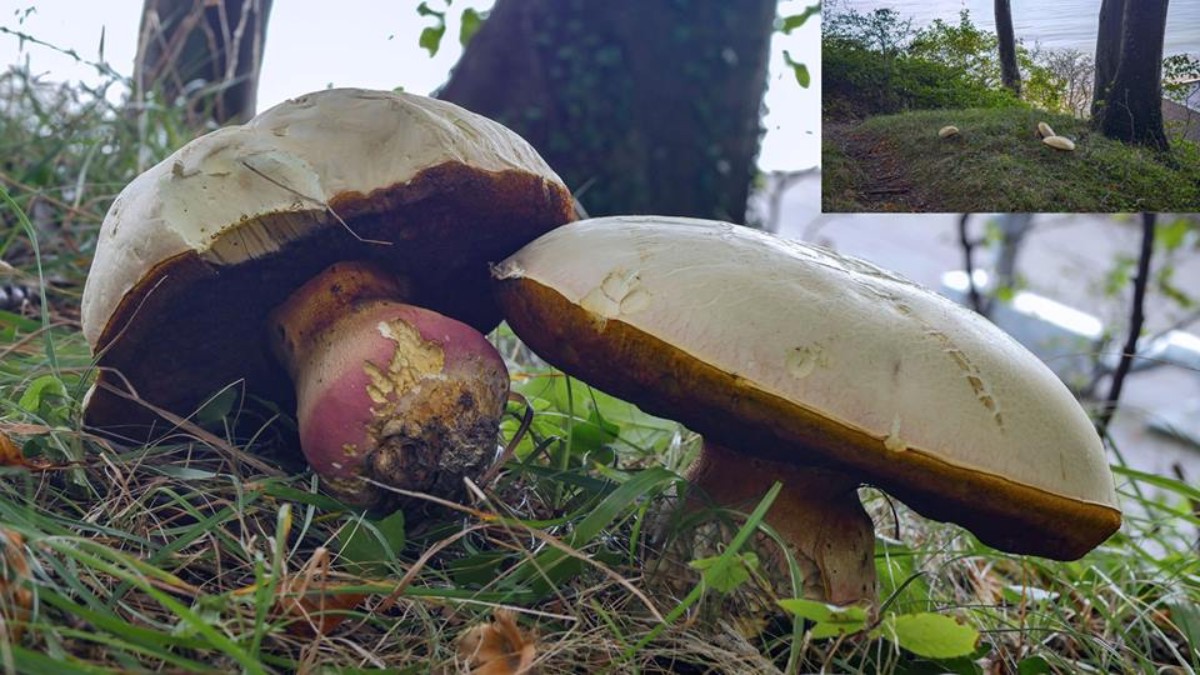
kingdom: Fungi
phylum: Basidiomycota
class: Agaricomycetes
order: Boletales
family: Boletaceae
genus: Rubroboletus
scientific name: Rubroboletus satanas
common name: Satans rørhat
